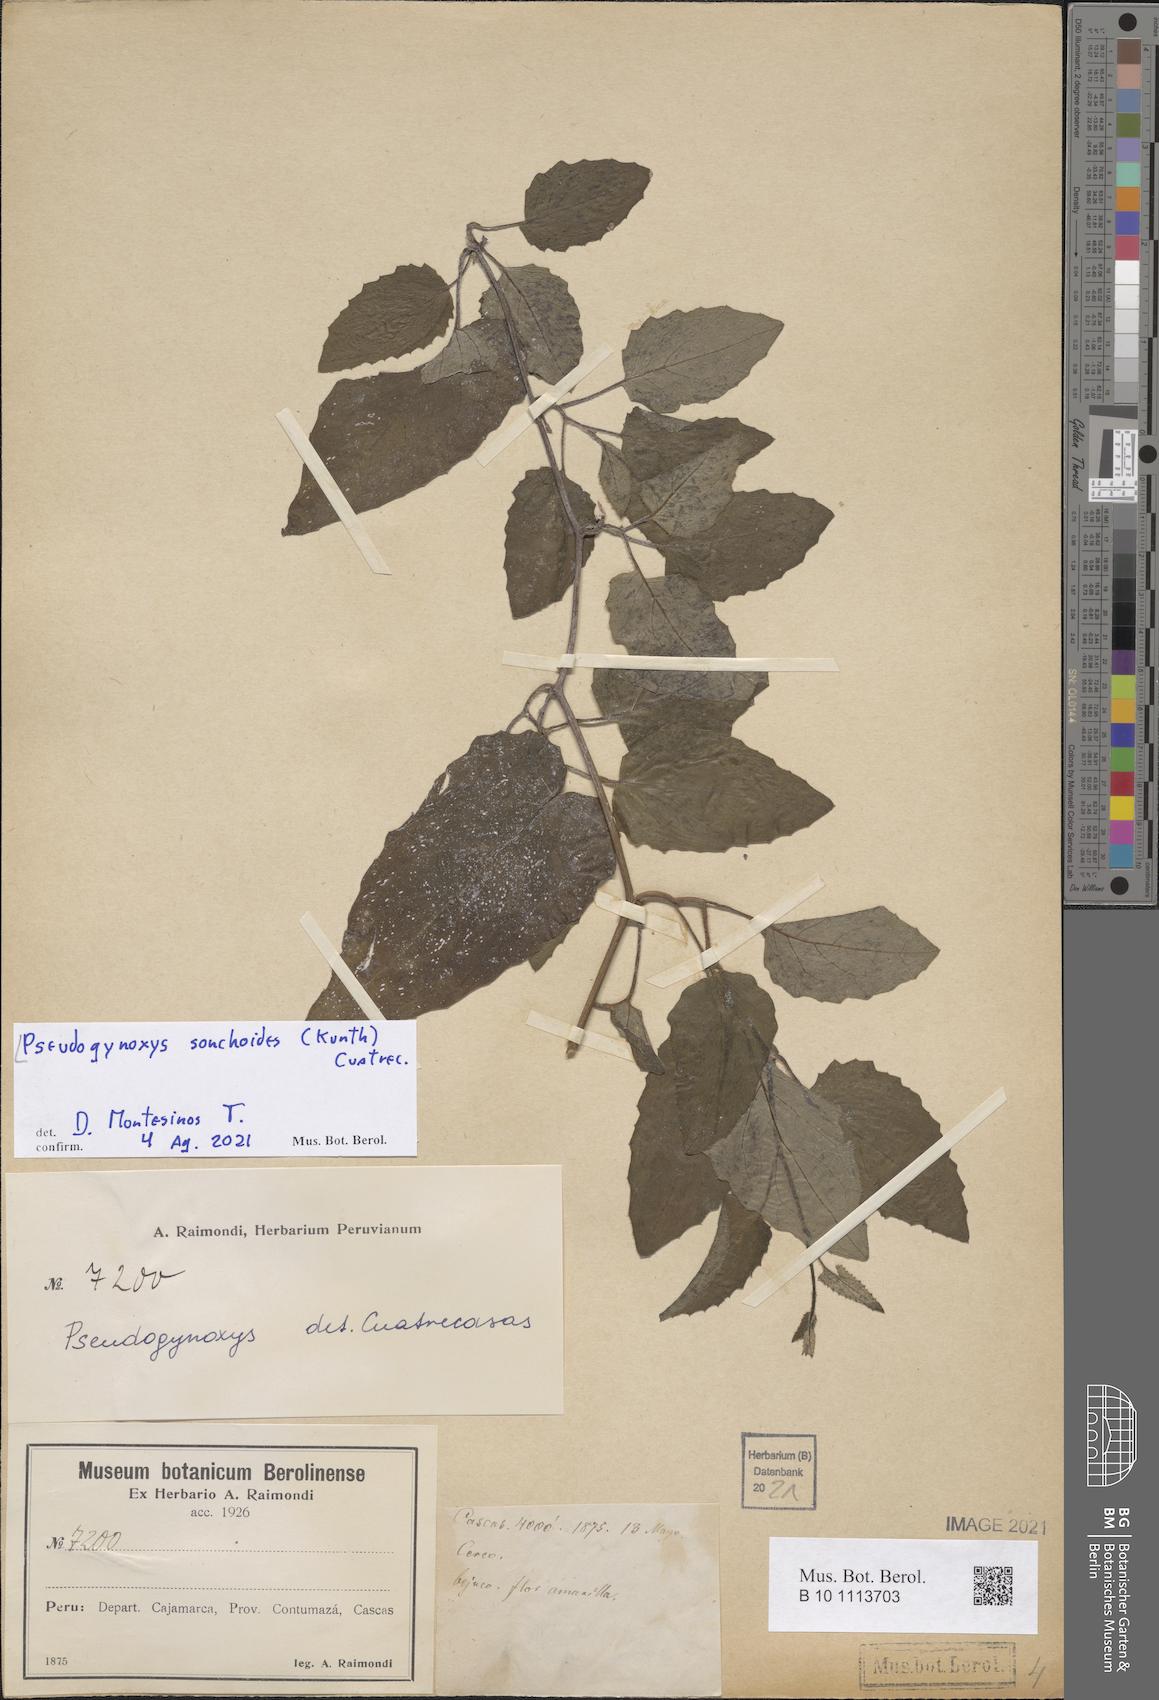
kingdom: Plantae
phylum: Tracheophyta
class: Magnoliopsida
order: Asterales
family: Asteraceae
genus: Pseudogynoxys
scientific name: Pseudogynoxys sonchoides
